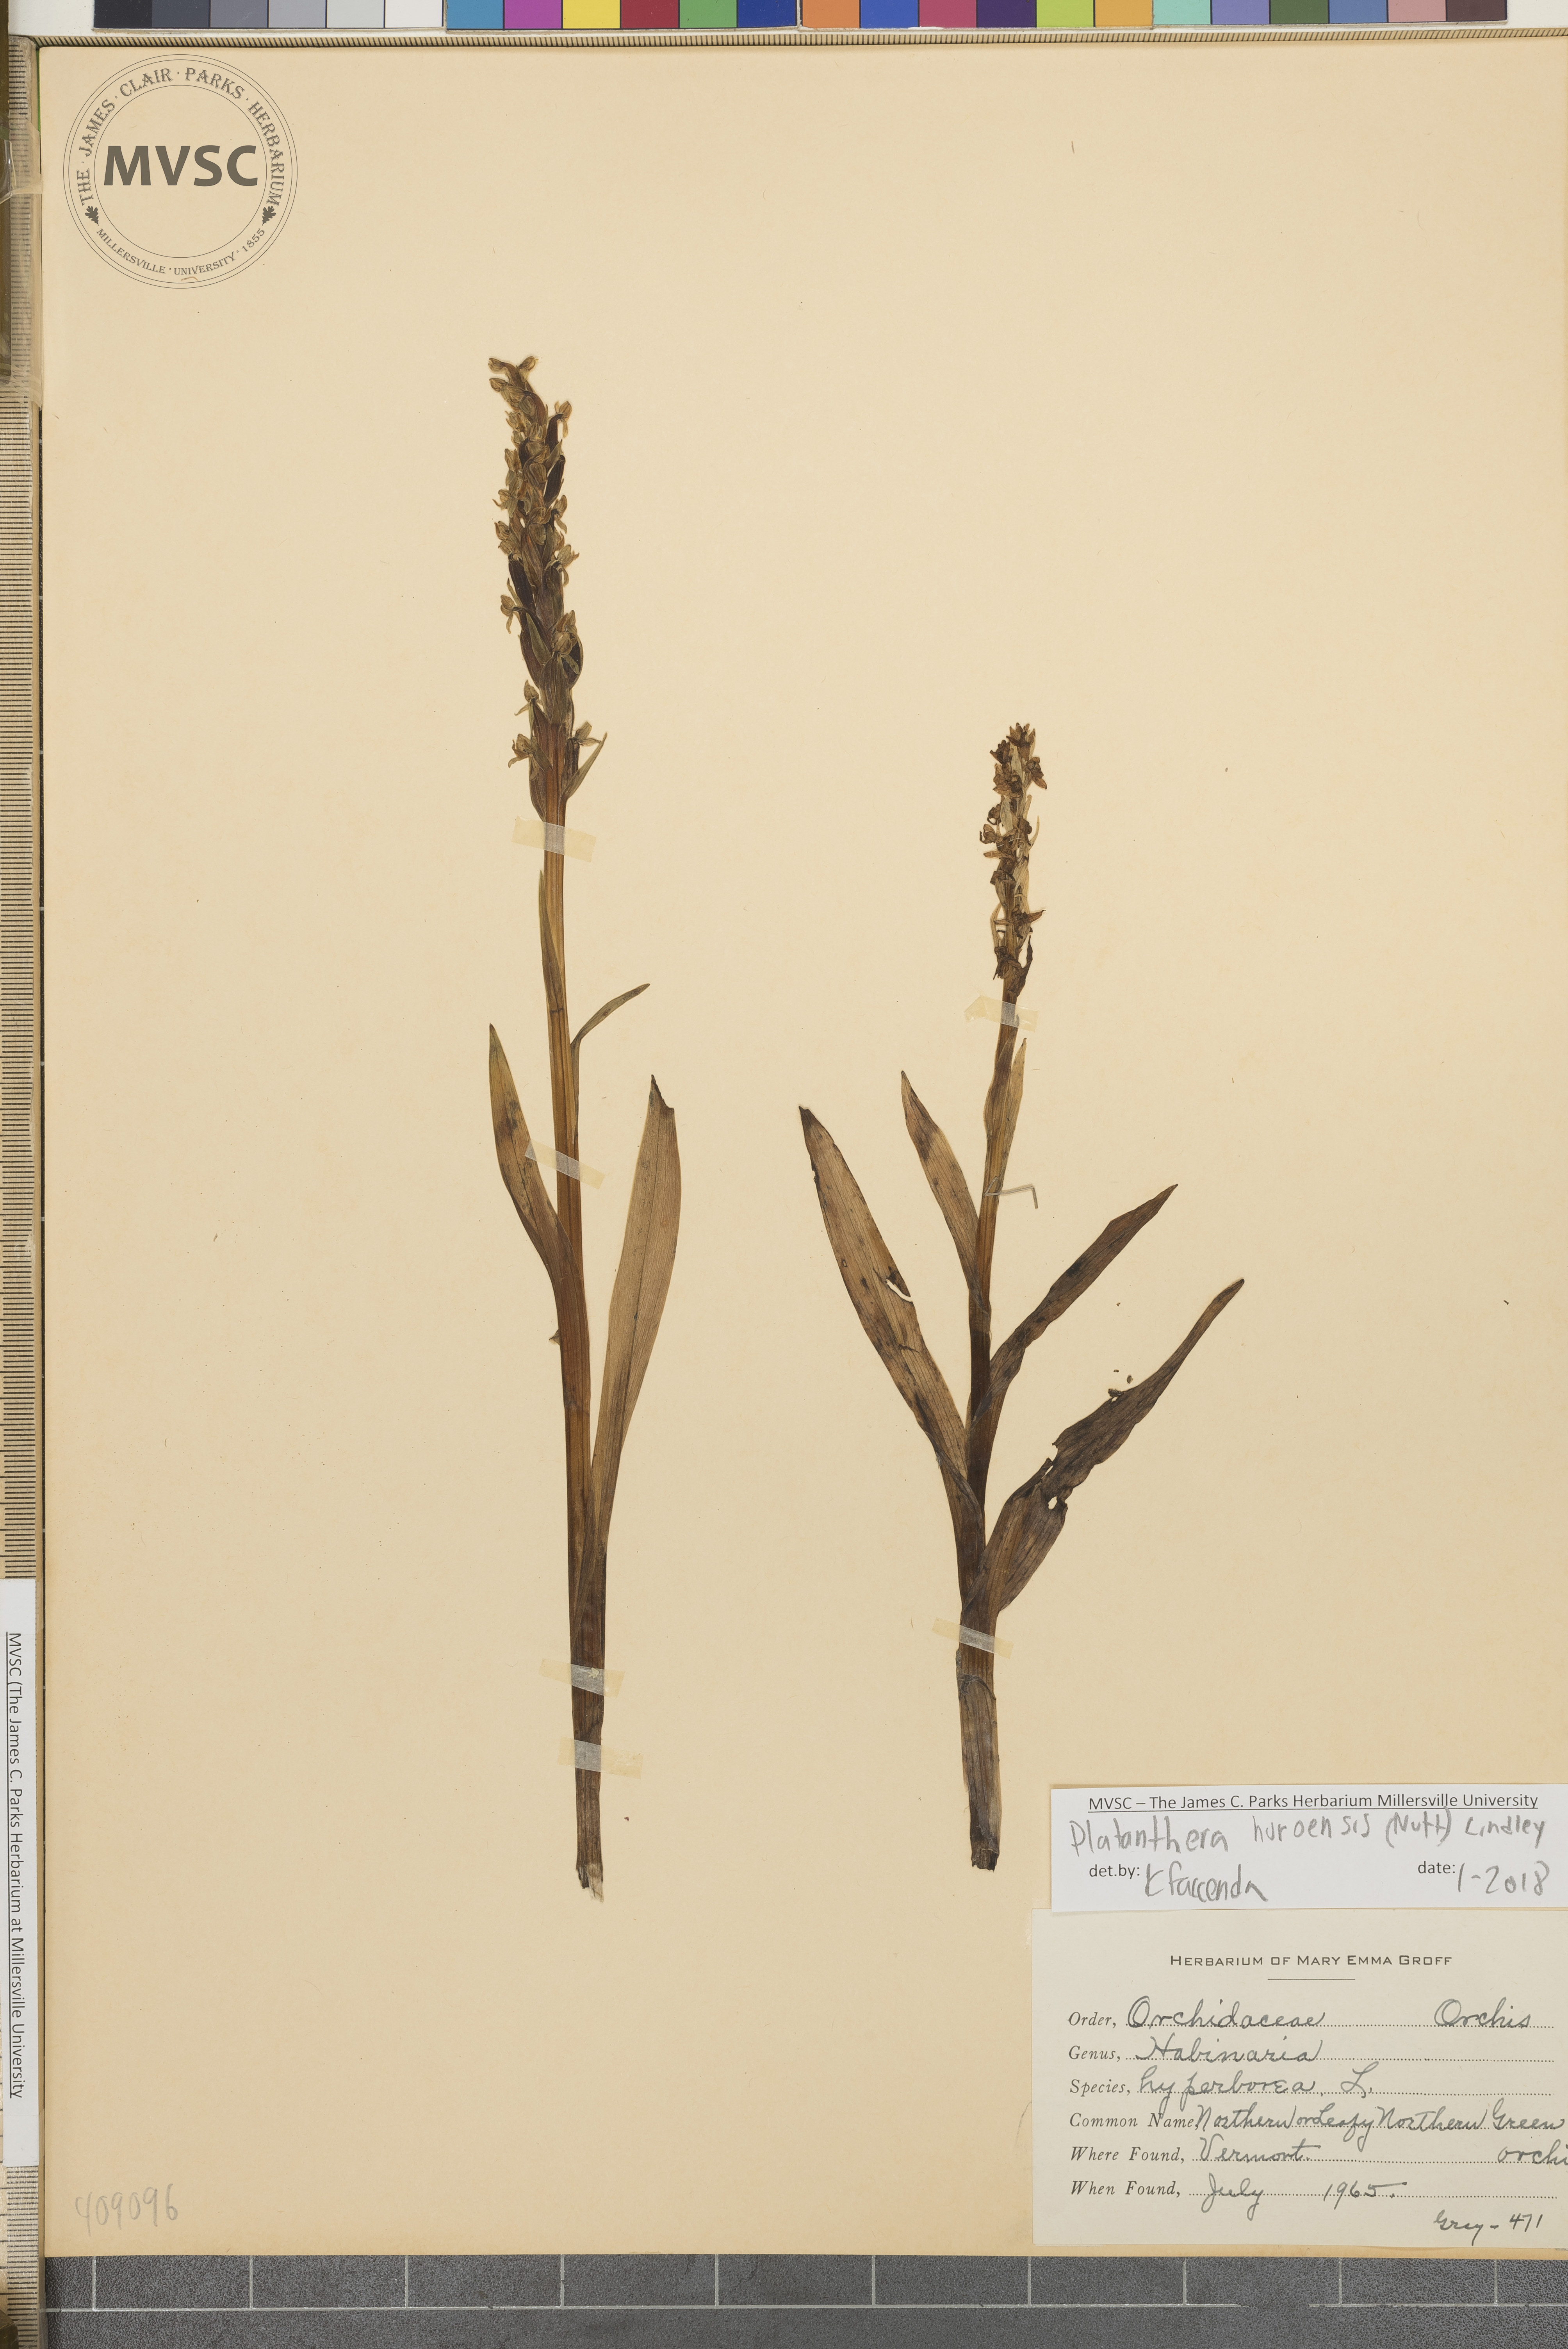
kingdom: Plantae
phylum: Tracheophyta
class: Liliopsida
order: Asparagales
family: Orchidaceae
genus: Platanthera
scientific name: Platanthera huronensis
